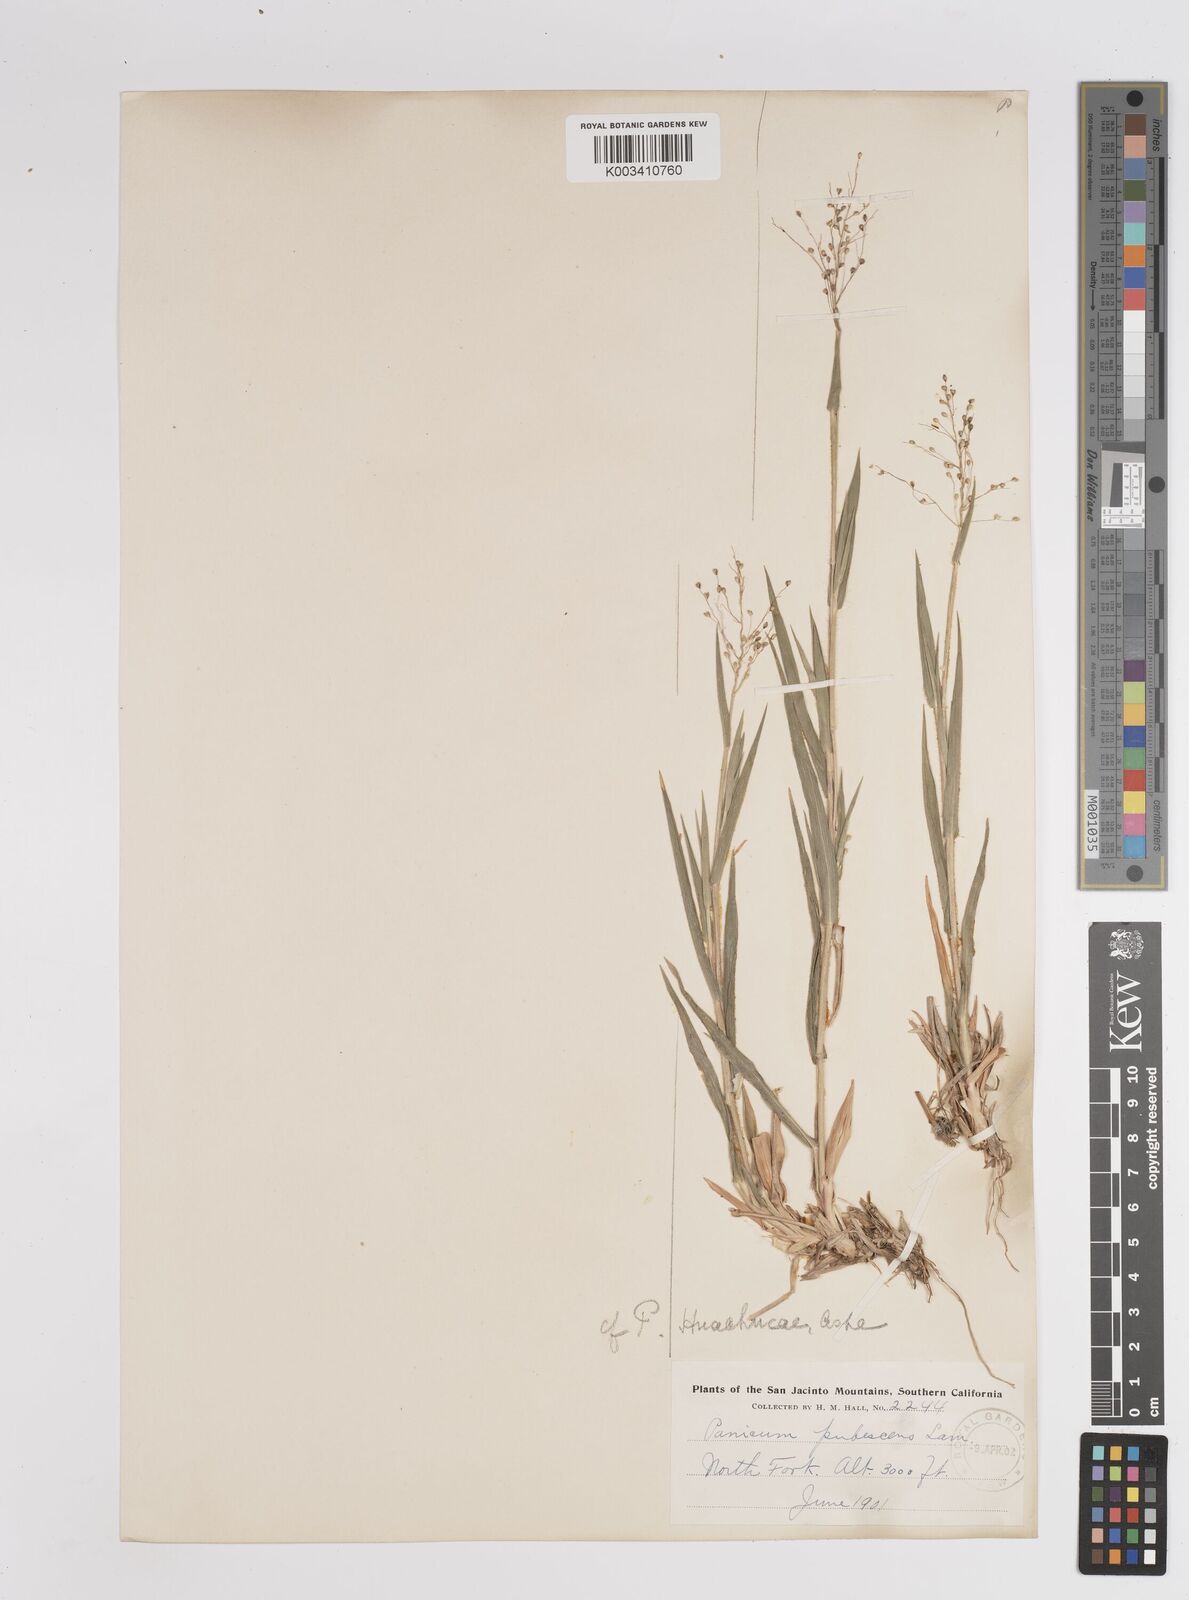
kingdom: Plantae
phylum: Tracheophyta
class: Liliopsida
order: Poales
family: Poaceae
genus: Dichanthelium
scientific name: Dichanthelium acuminatum
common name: Hairy panic grass
